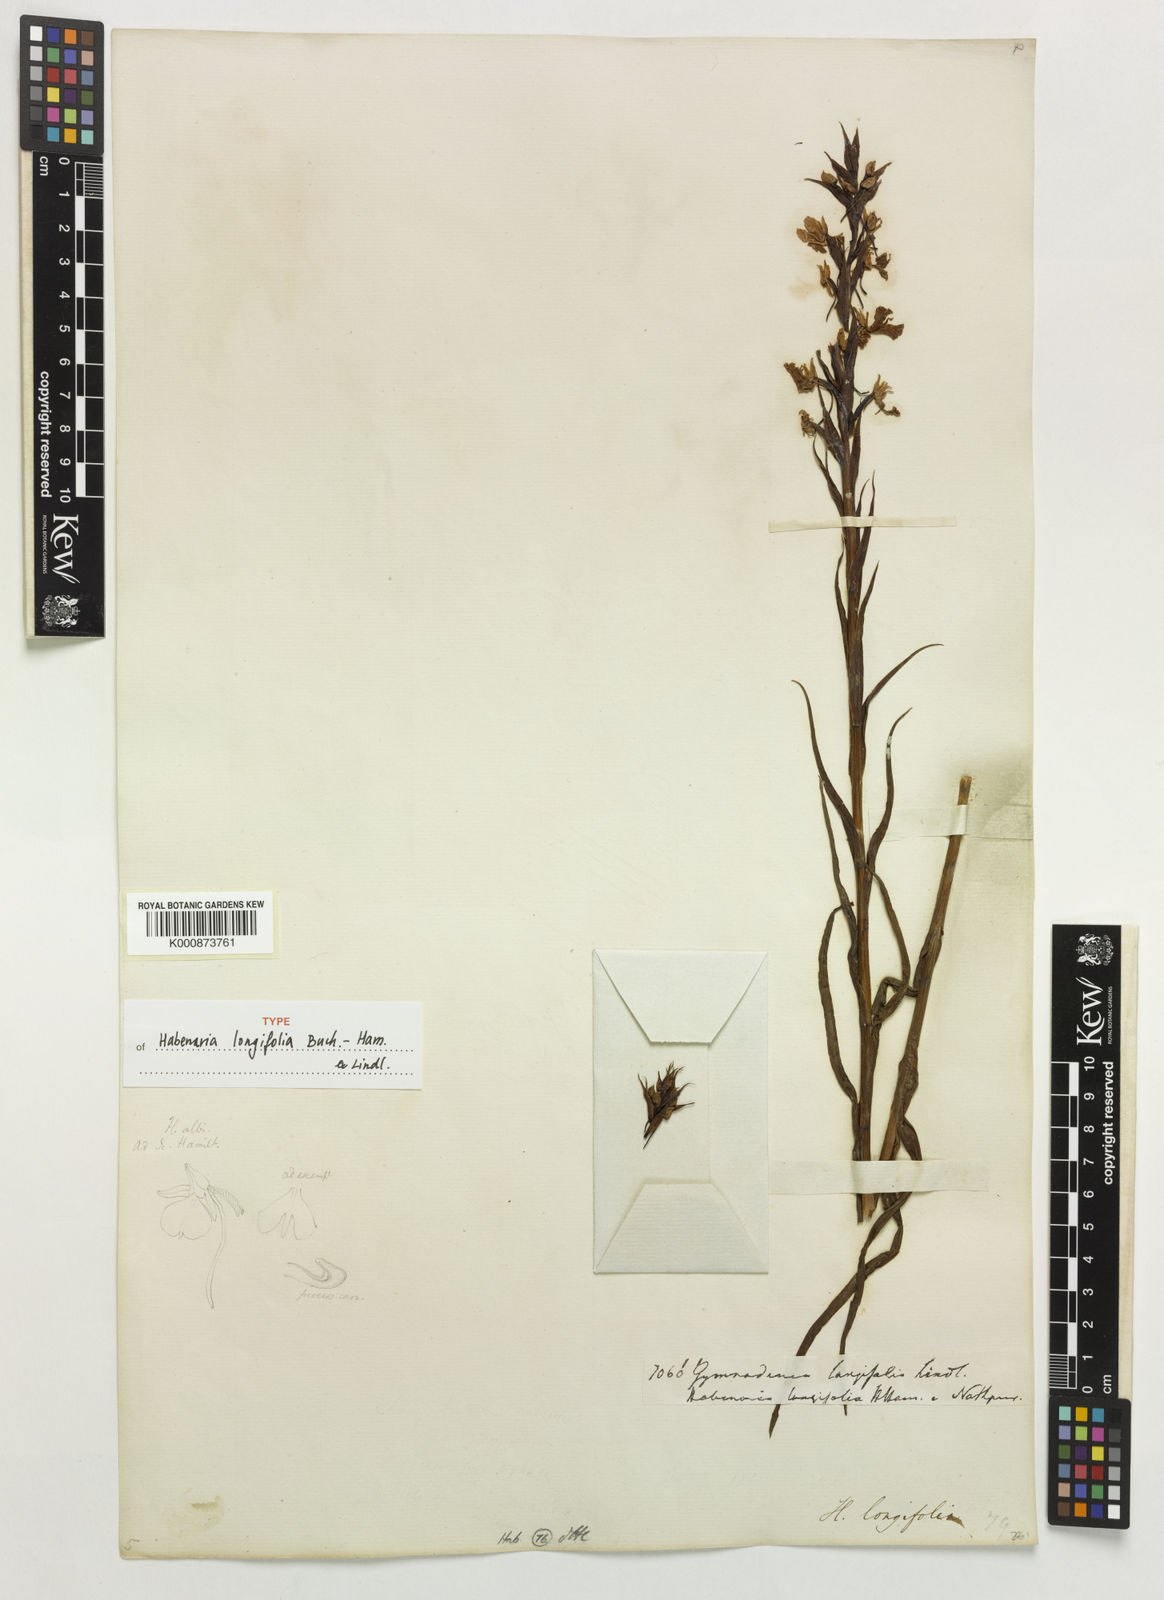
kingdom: Plantae
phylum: Tracheophyta
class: Liliopsida
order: Asparagales
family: Orchidaceae
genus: Habenaria
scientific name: Habenaria longifolia
